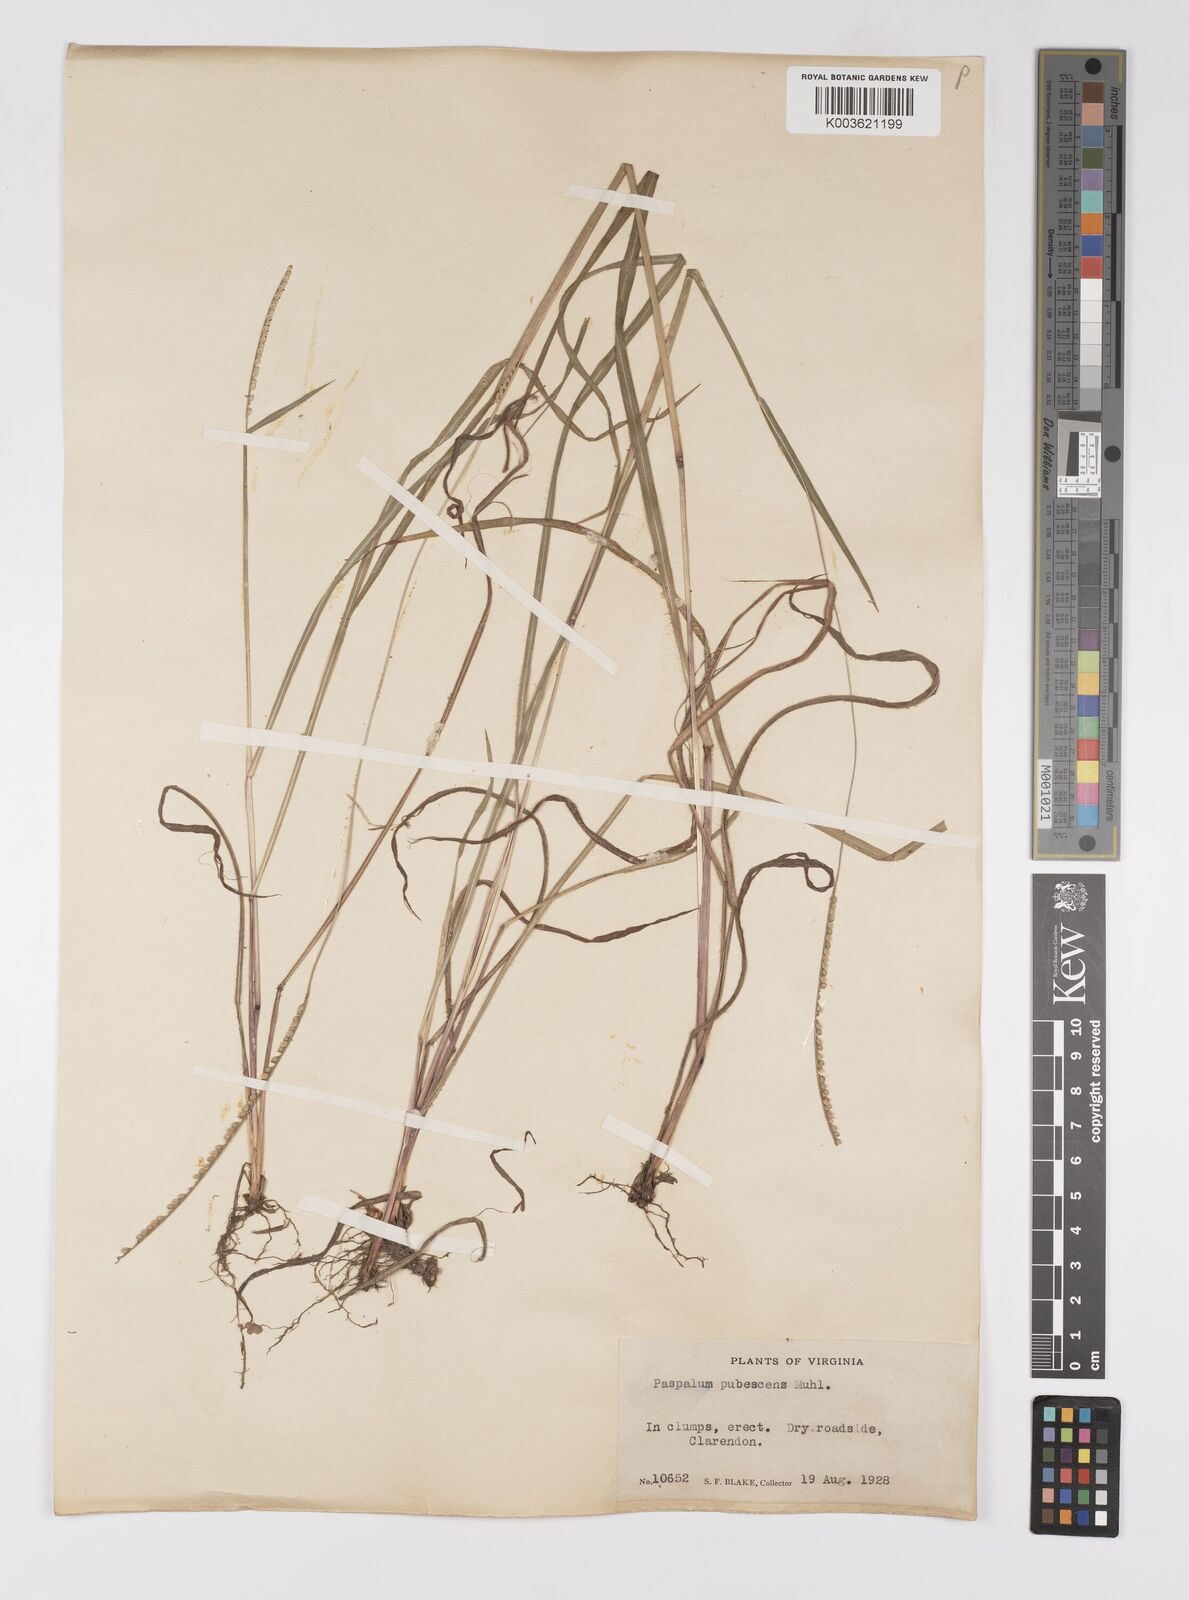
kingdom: Plantae
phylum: Tracheophyta
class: Liliopsida
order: Poales
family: Poaceae
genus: Paspalum
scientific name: Paspalum setaceum
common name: Slender paspalum
